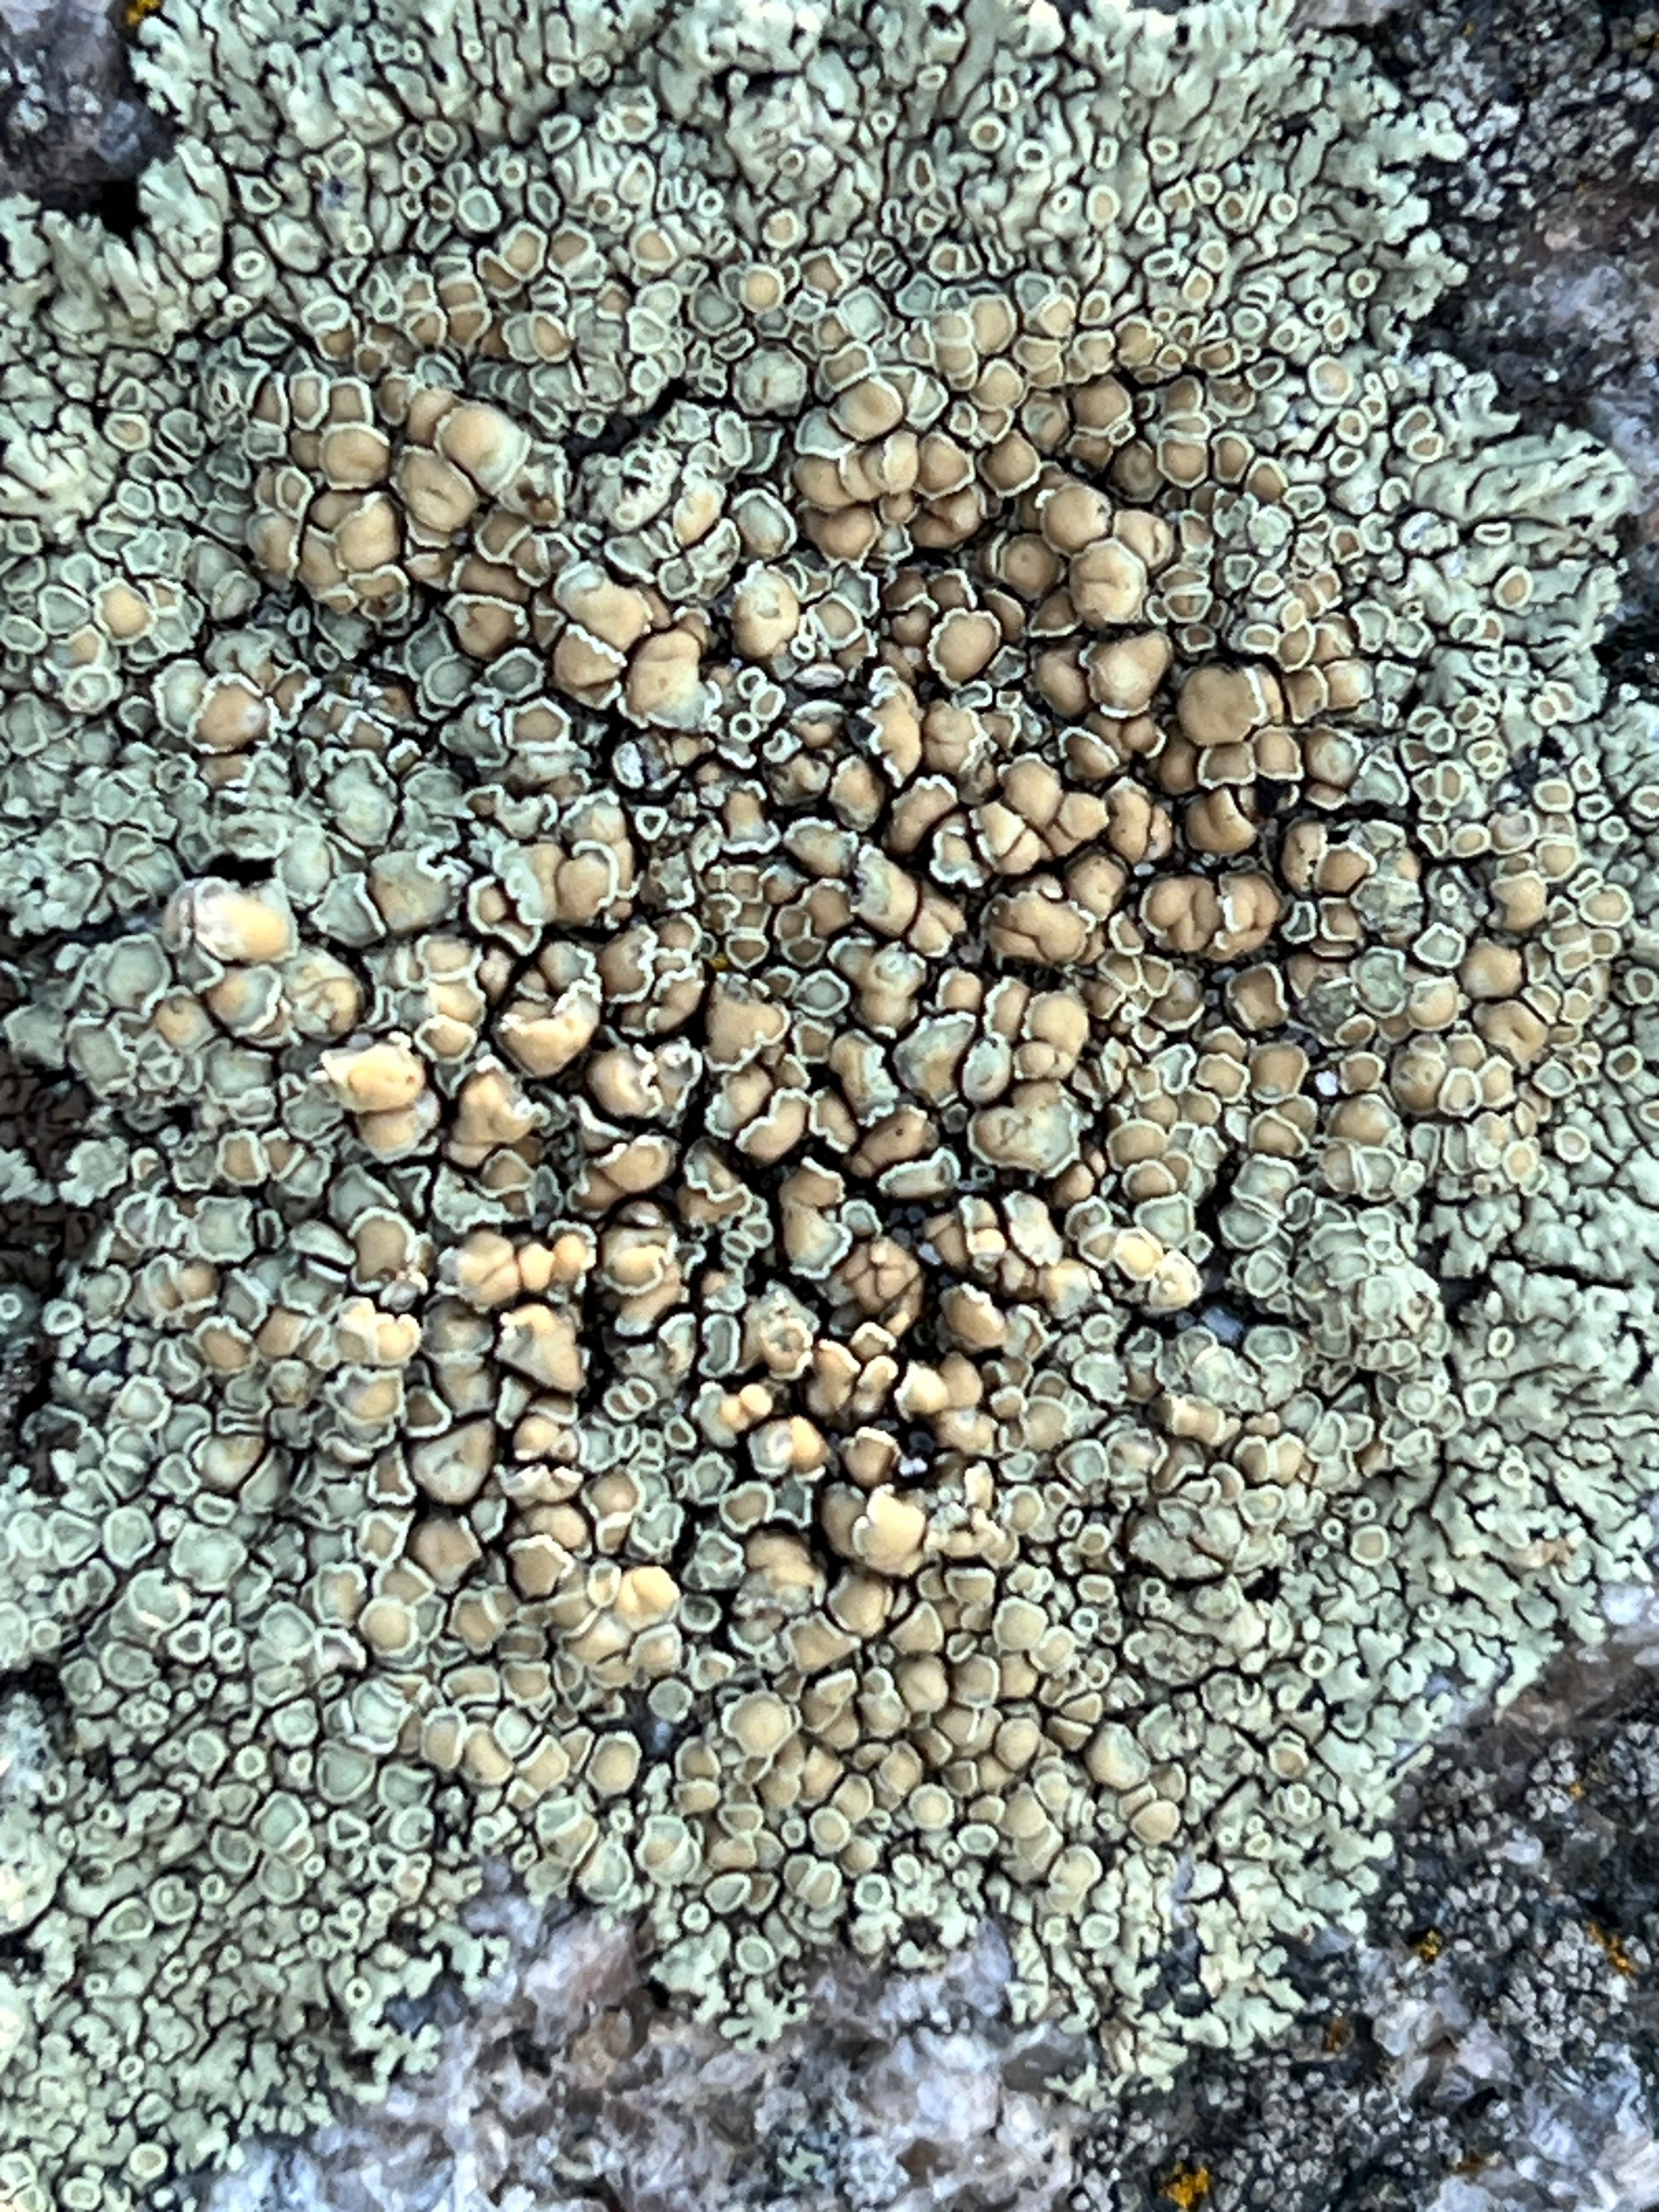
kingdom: Fungi
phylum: Ascomycota
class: Lecanoromycetes
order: Lecanorales
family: Lecanoraceae
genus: Protoparmeliopsis
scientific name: Protoparmeliopsis muralis
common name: Randfliget kantskivelav
